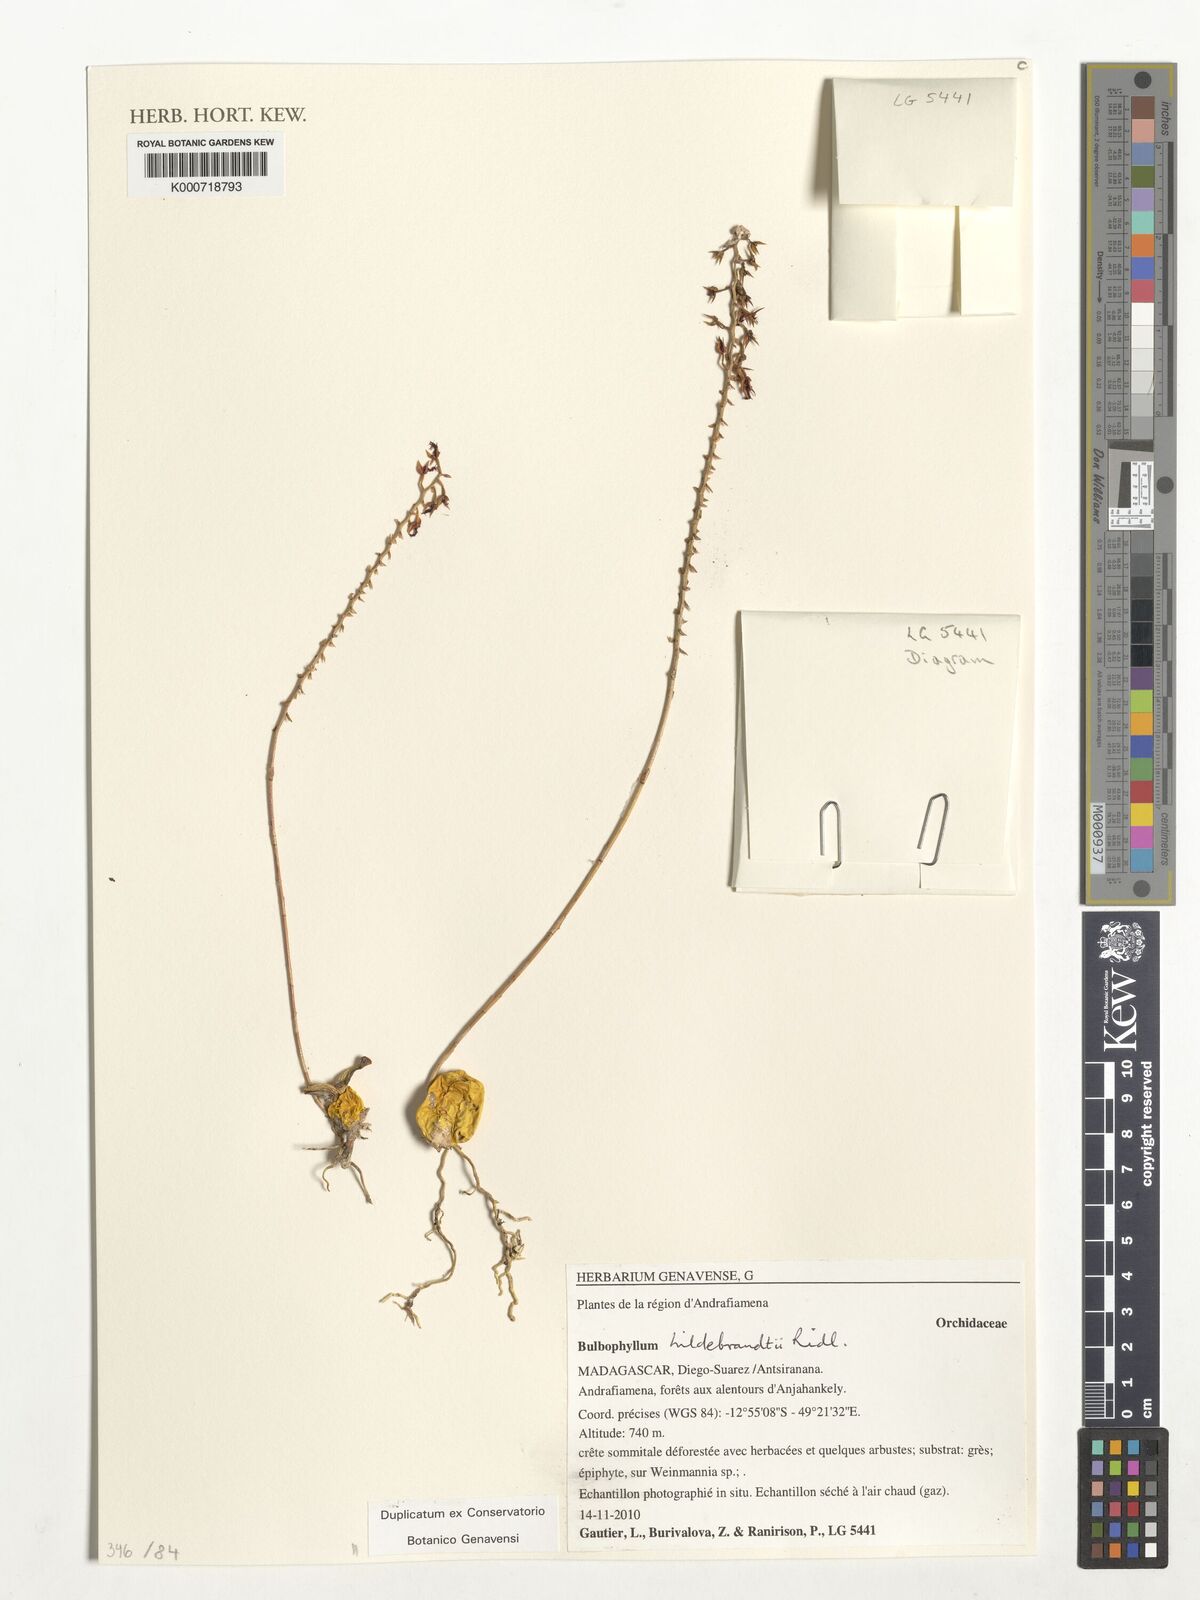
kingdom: Plantae
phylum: Tracheophyta
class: Liliopsida
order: Asparagales
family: Orchidaceae
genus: Bulbophyllum
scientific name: Bulbophyllum hildebrandtii
